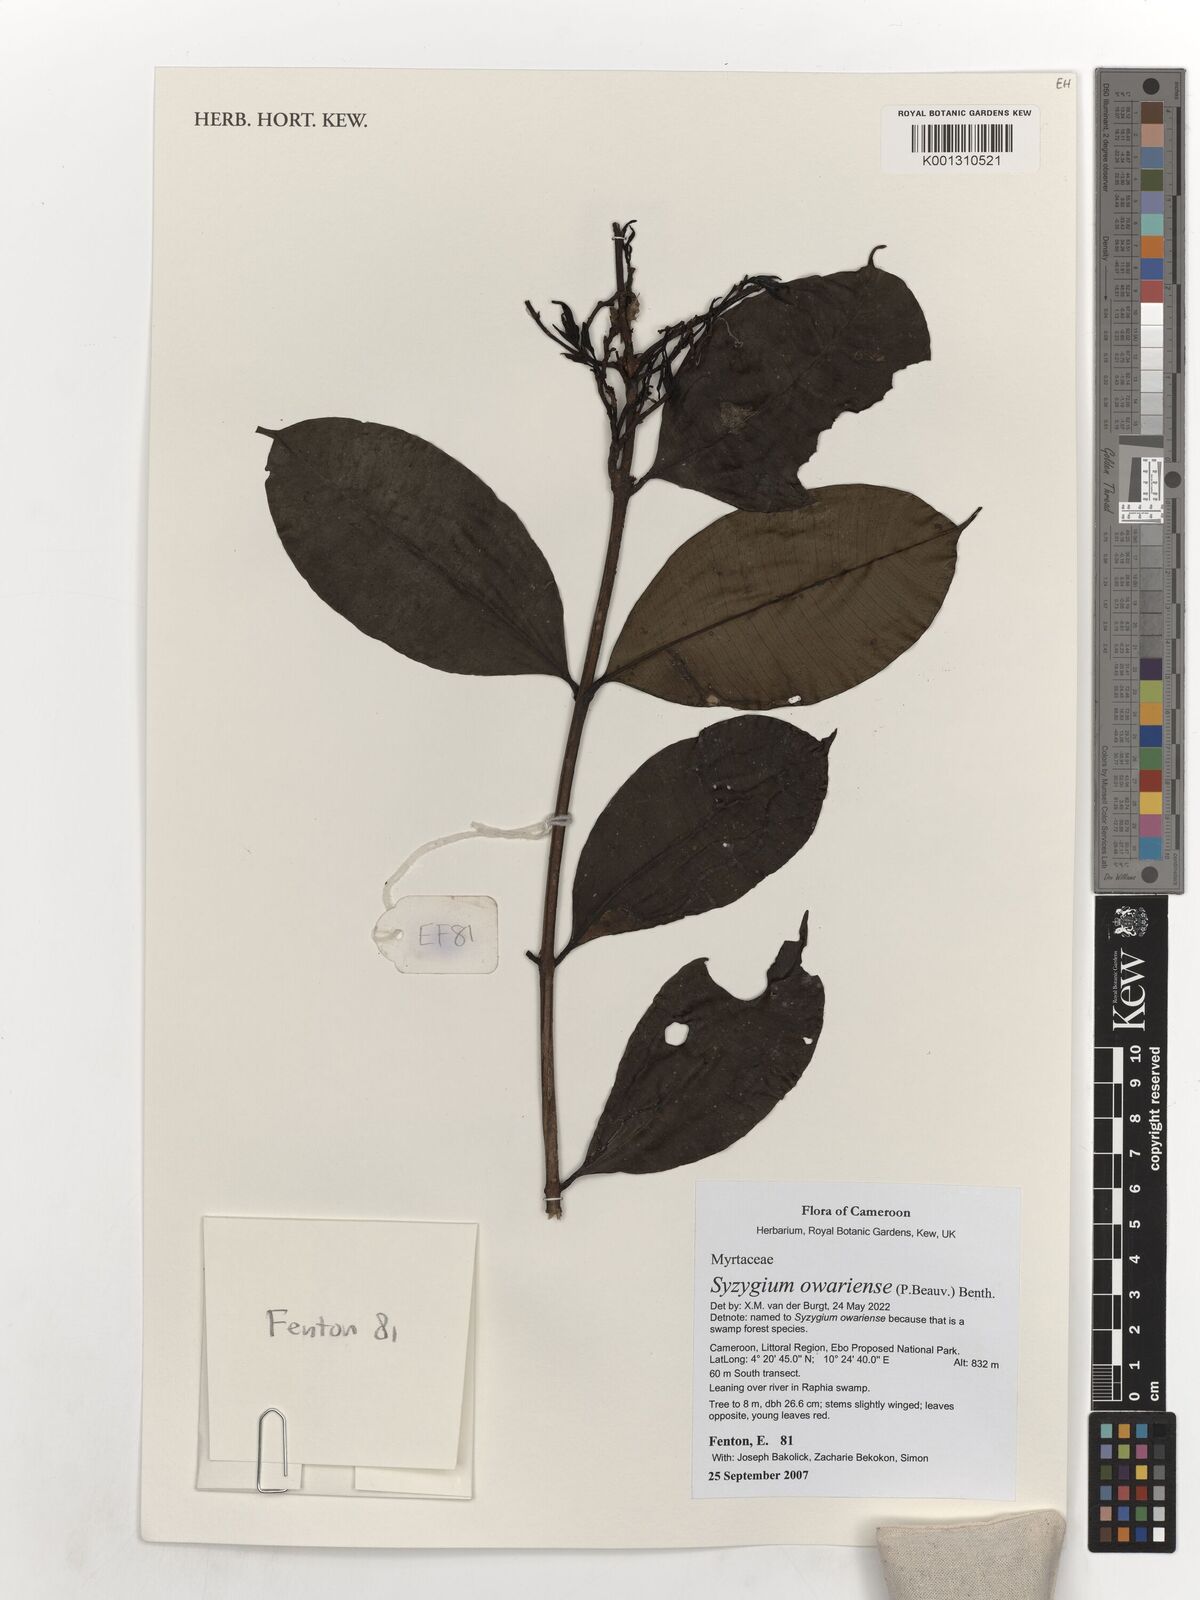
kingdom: Plantae
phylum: Tracheophyta
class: Magnoliopsida
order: Myrtales
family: Myrtaceae
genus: Syzygium
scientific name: Syzygium owariense
